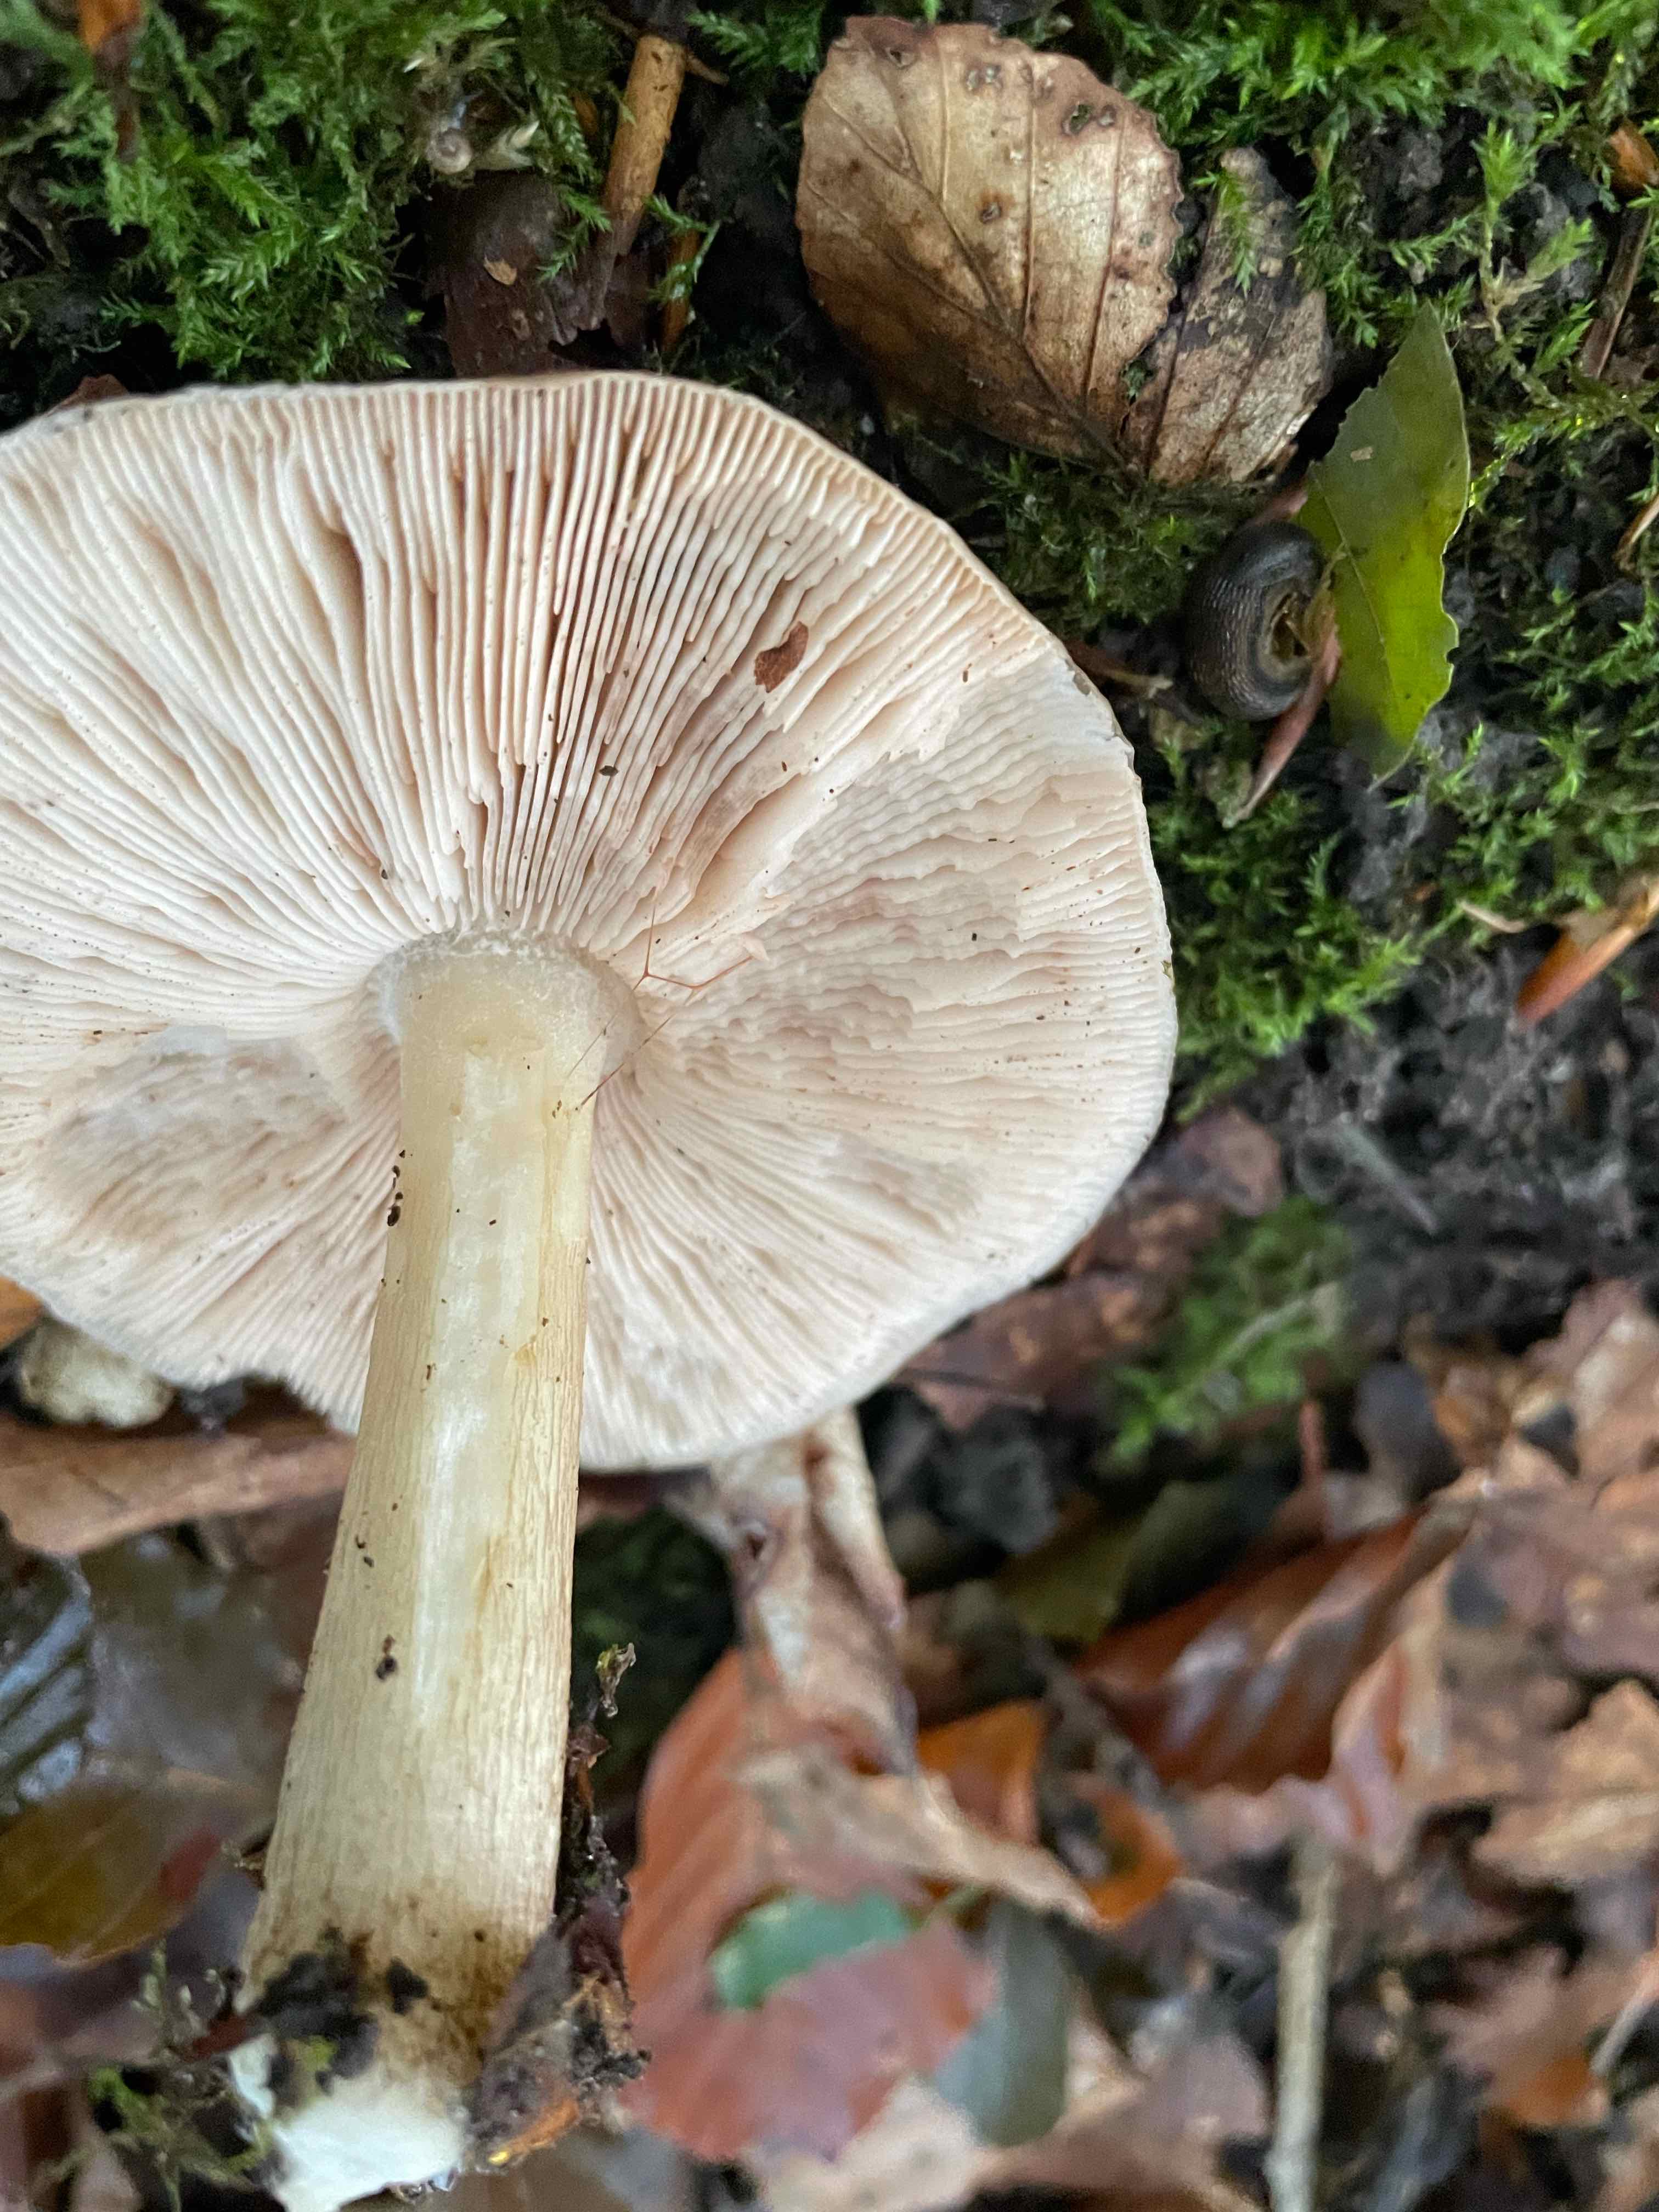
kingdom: Fungi
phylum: Basidiomycota
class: Agaricomycetes
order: Agaricales
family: Pluteaceae
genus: Pluteus
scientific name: Pluteus cervinus
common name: sodfarvet skærmhat
